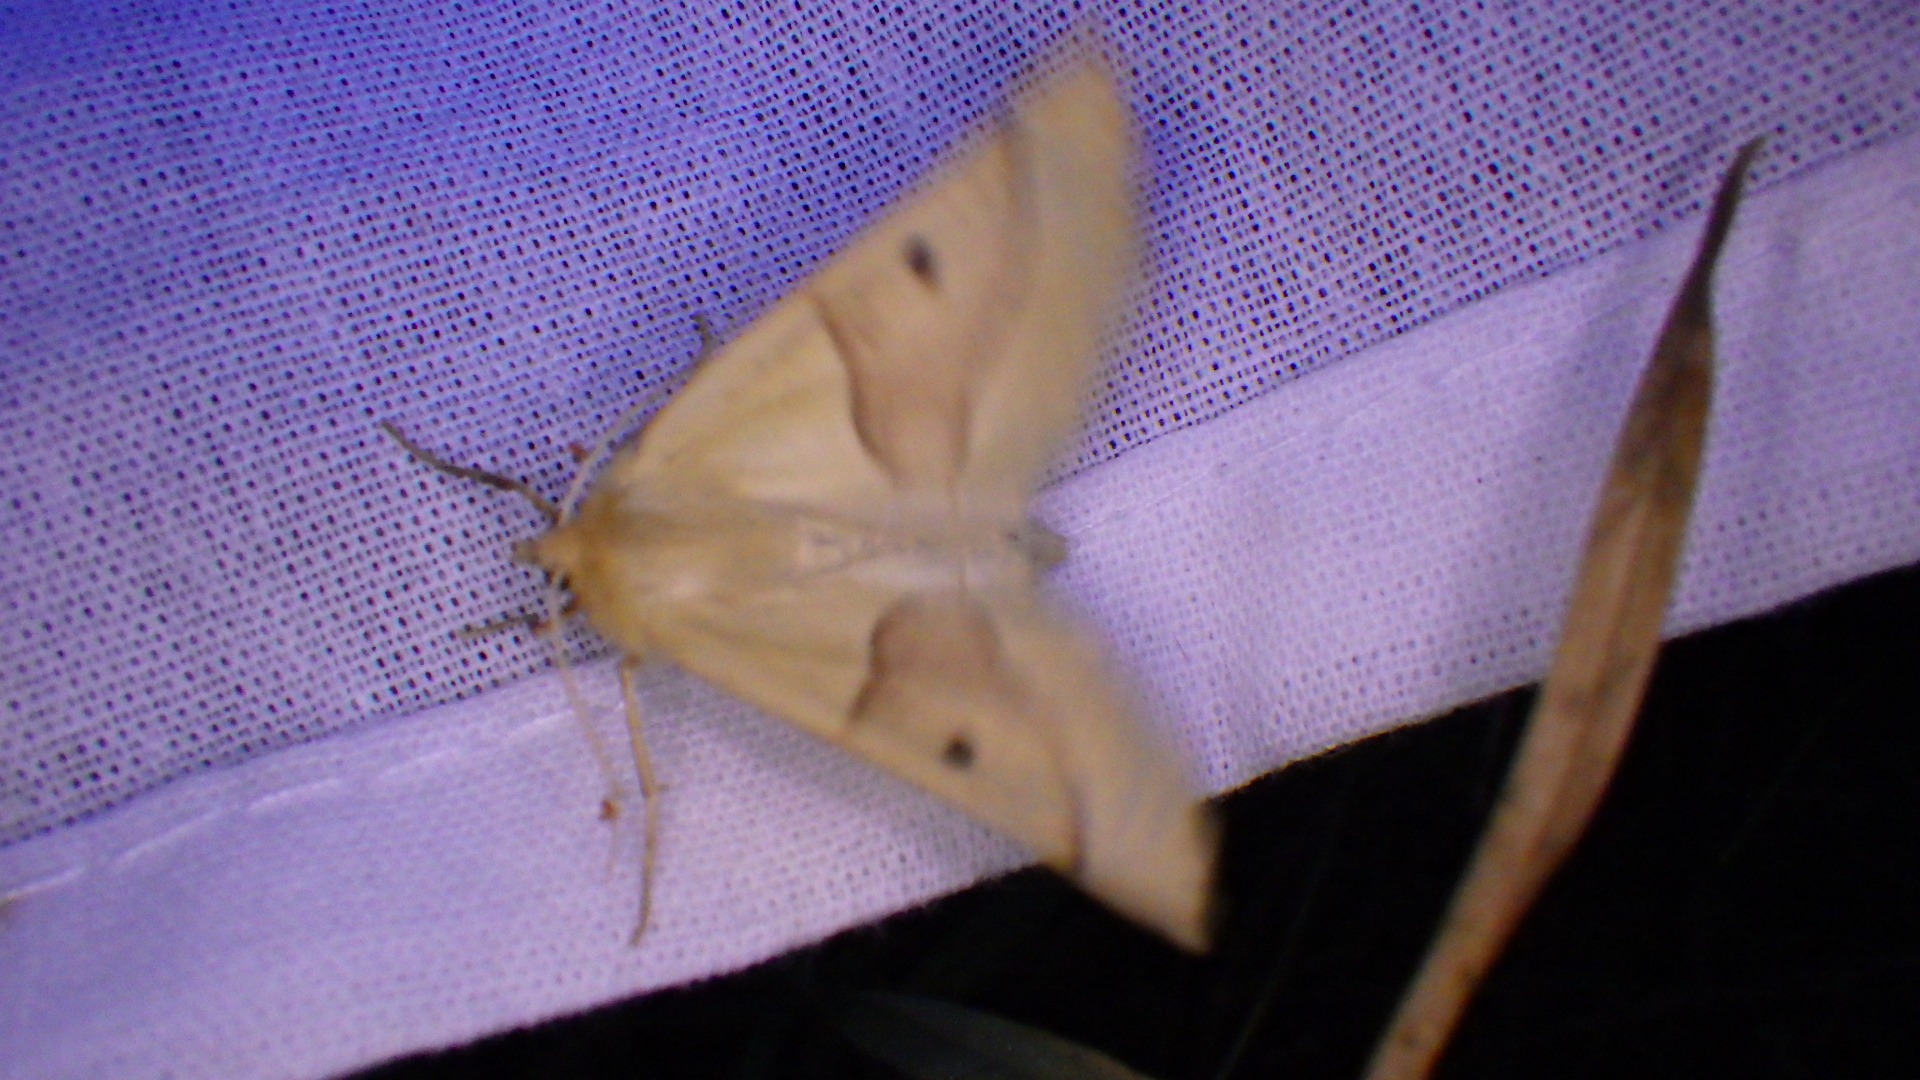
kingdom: Animalia
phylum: Arthropoda
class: Insecta
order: Lepidoptera
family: Geometridae
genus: Crocallis
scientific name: Crocallis elinguaria
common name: Okkergul rovmåler
